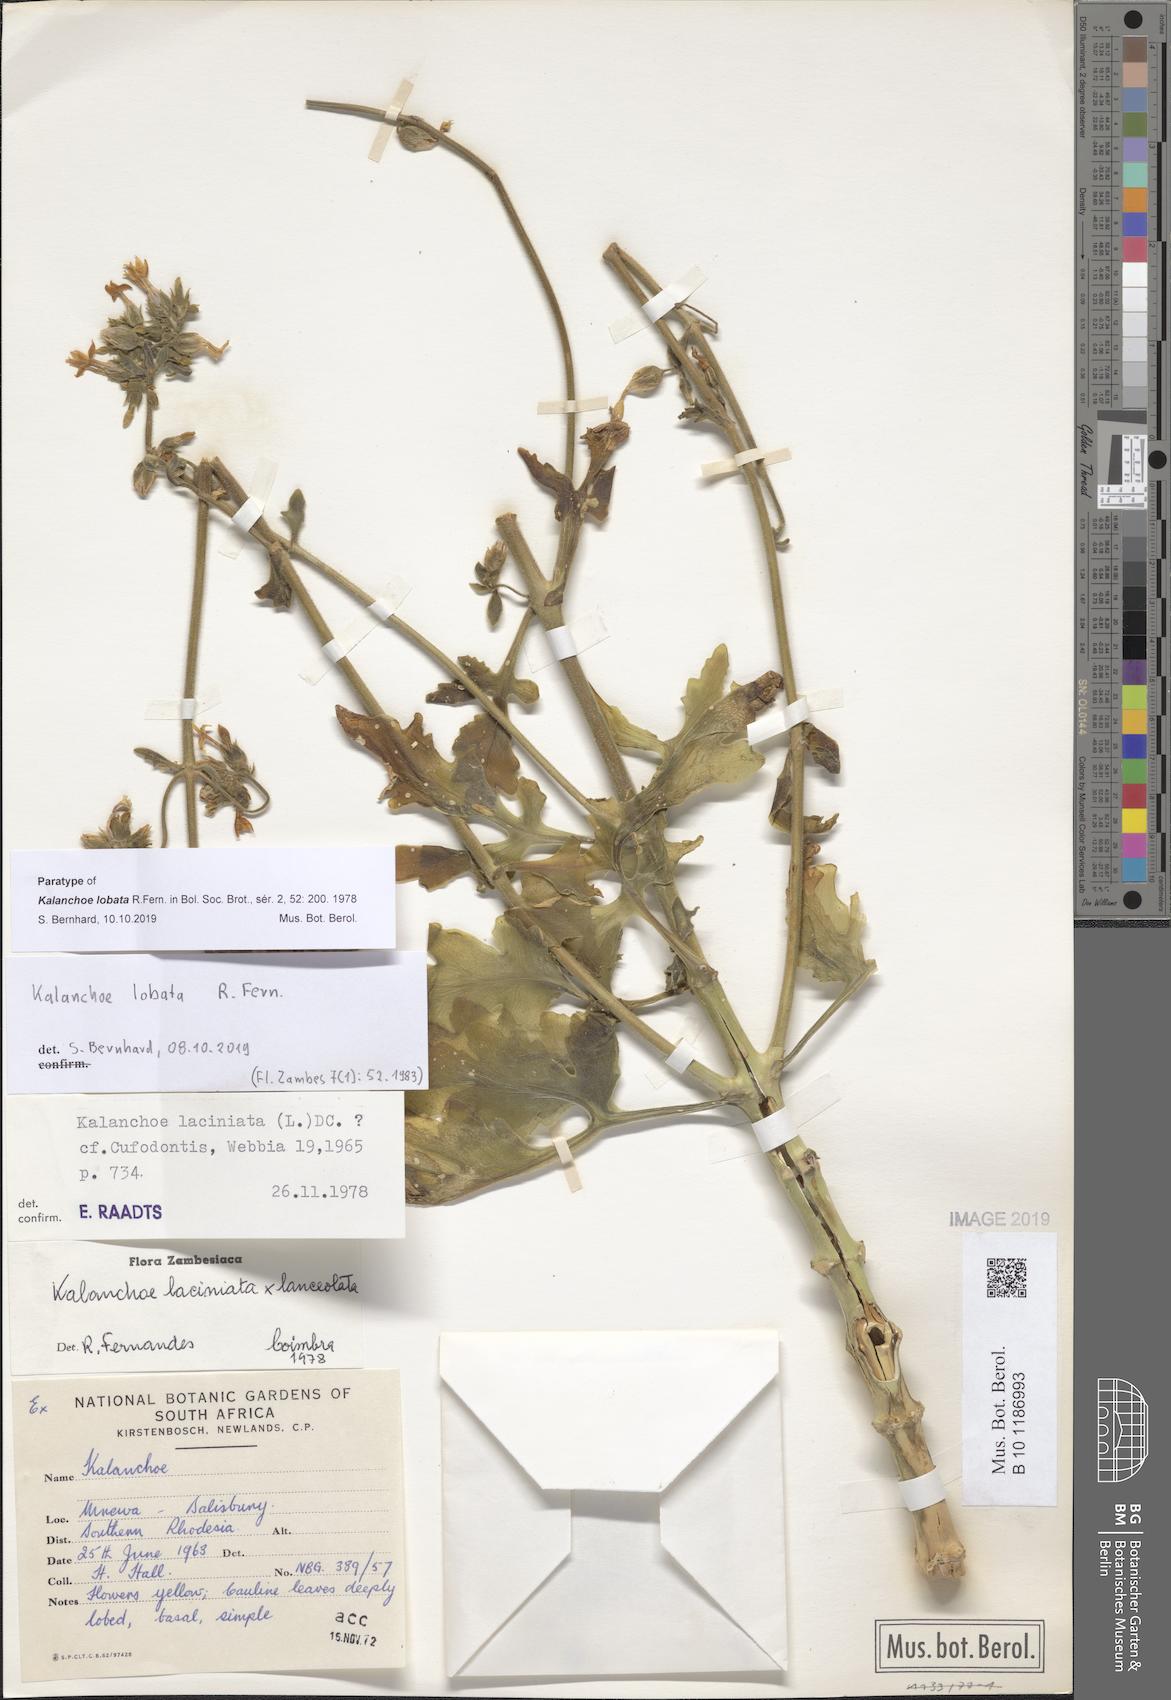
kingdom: Plantae
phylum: Tracheophyta
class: Magnoliopsida
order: Saxifragales
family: Crassulaceae
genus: Kalanchoe
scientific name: Kalanchoe lobata
